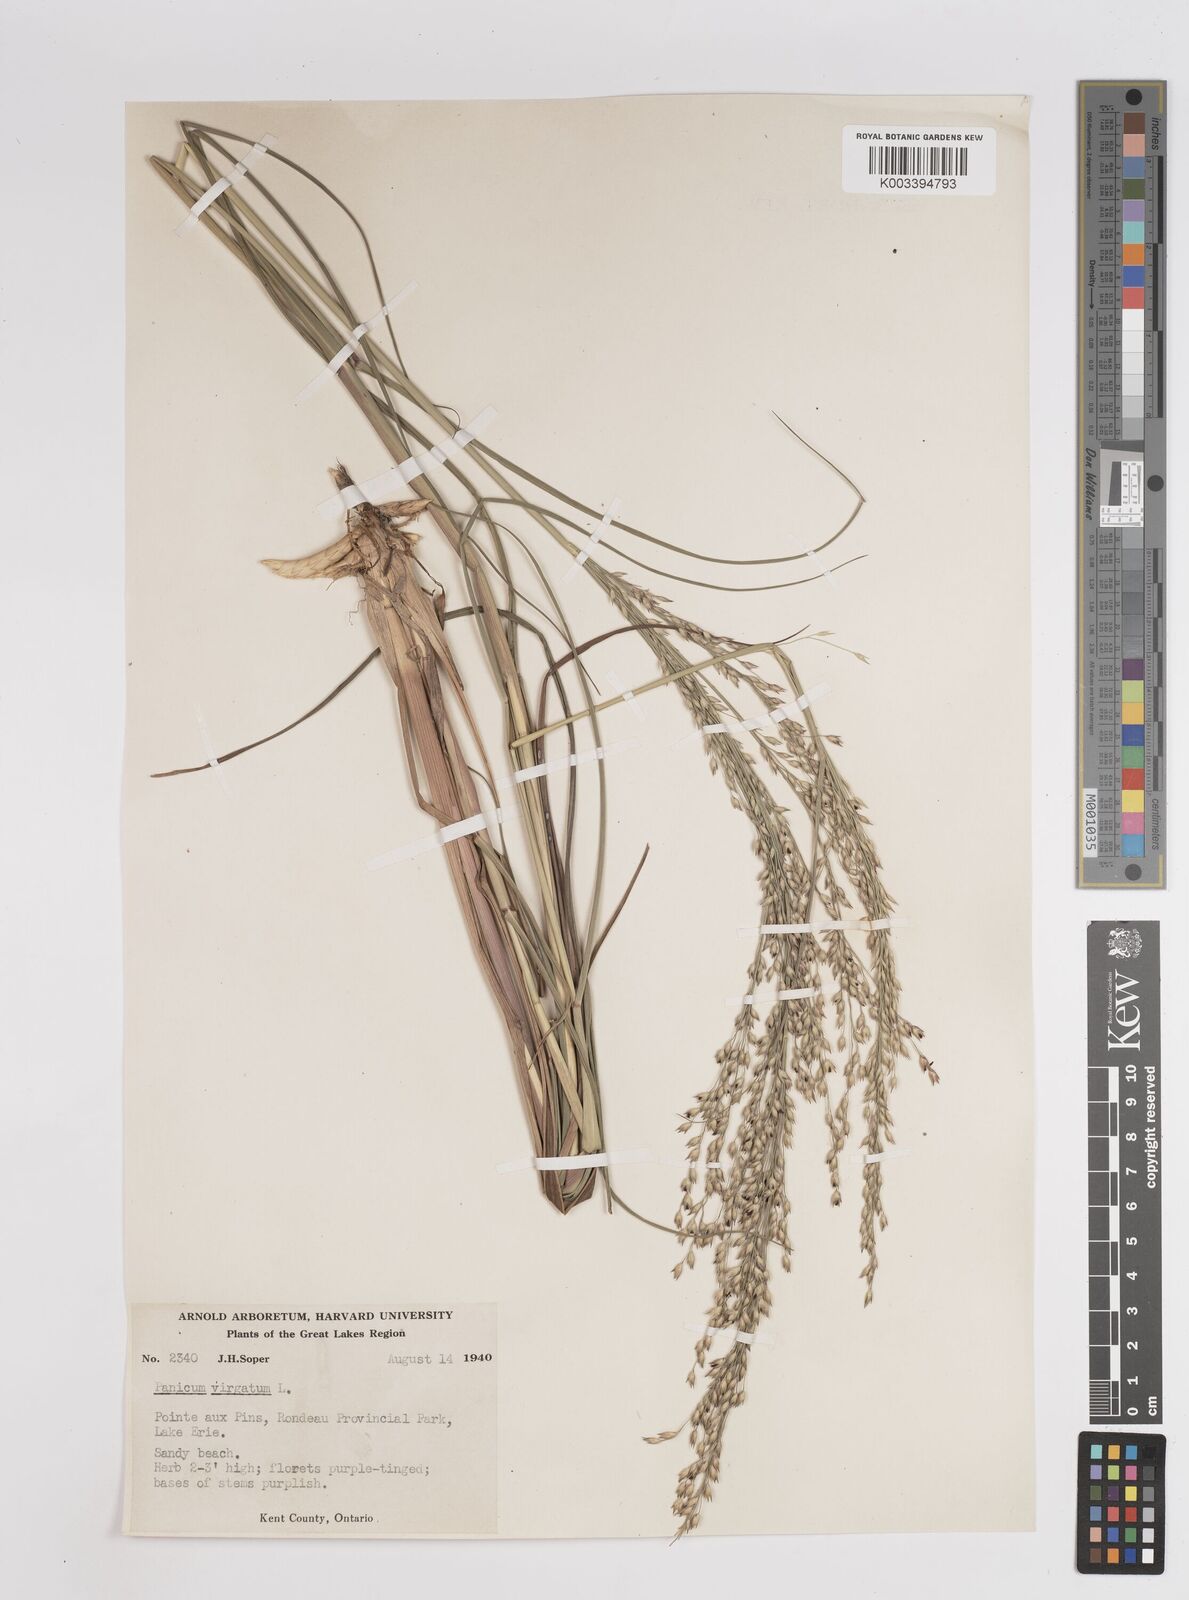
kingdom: Plantae
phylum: Tracheophyta
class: Liliopsida
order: Poales
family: Poaceae
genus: Panicum
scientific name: Panicum virgatum
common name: Switchgrass
